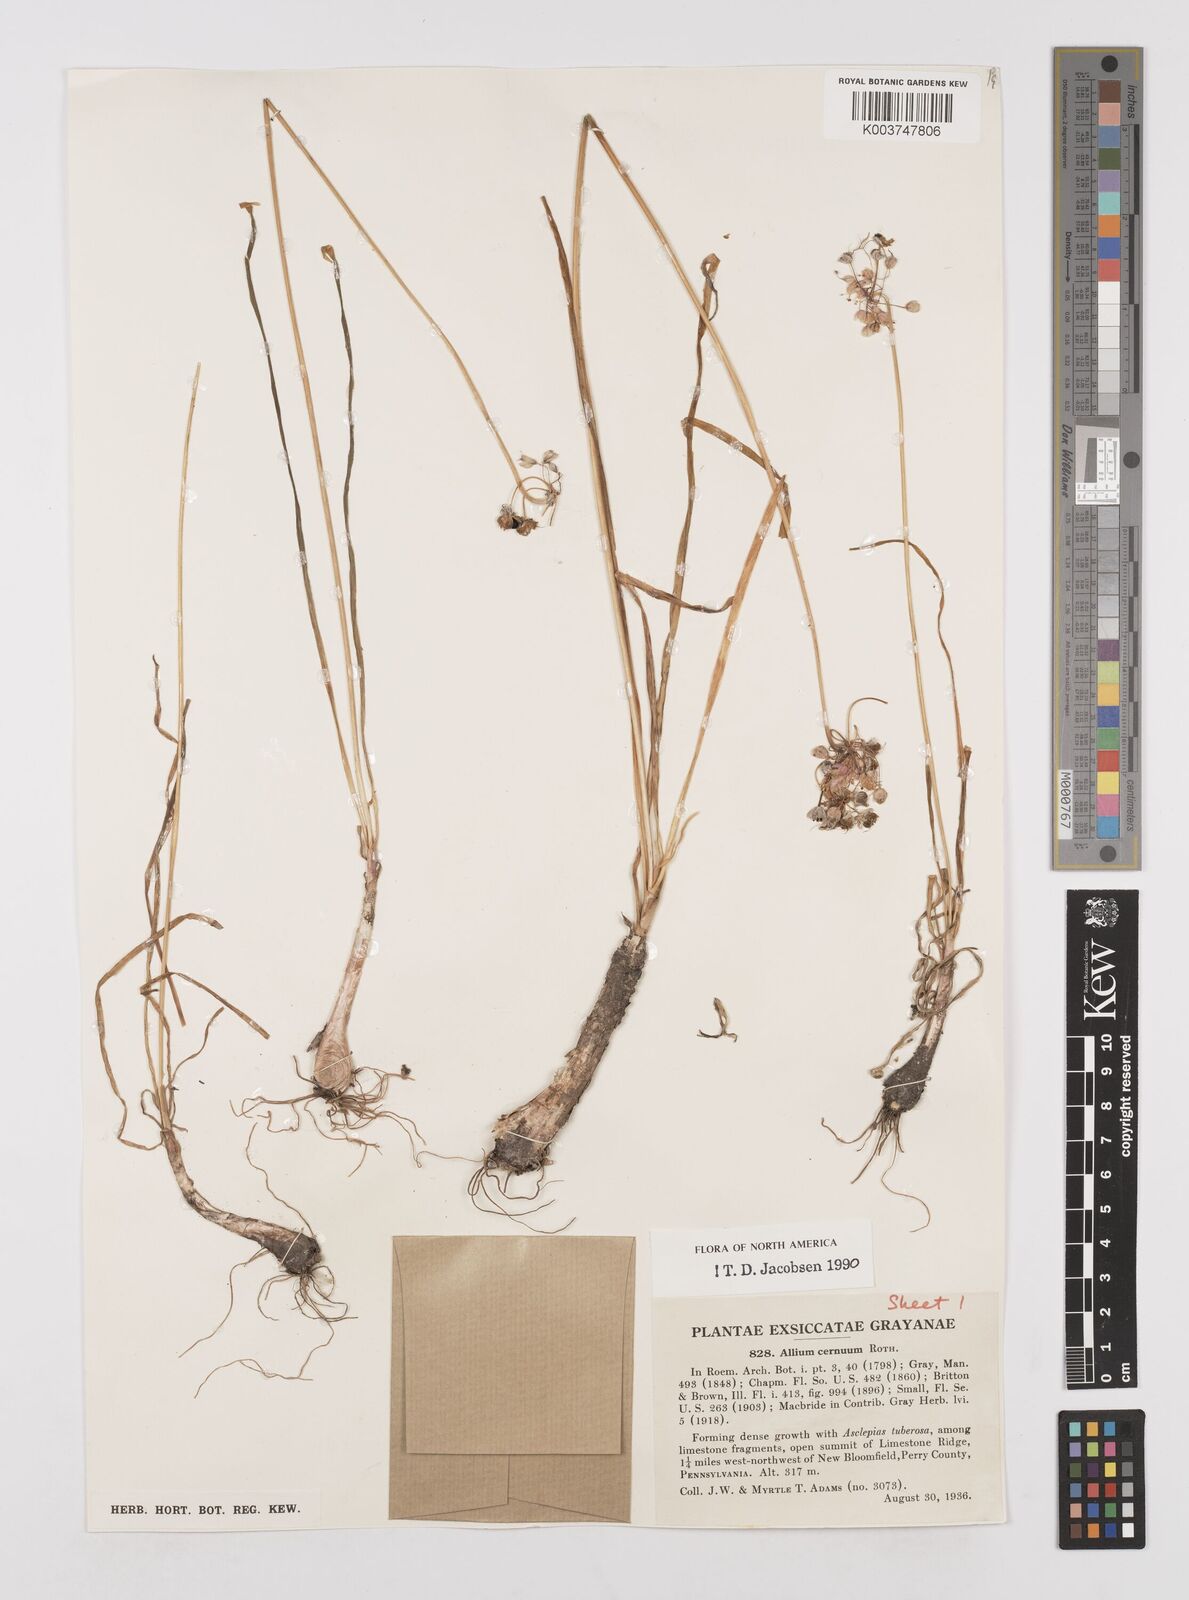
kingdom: Plantae
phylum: Tracheophyta
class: Liliopsida
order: Asparagales
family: Amaryllidaceae
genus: Allium
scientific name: Allium cernuum
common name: Nodding onion
